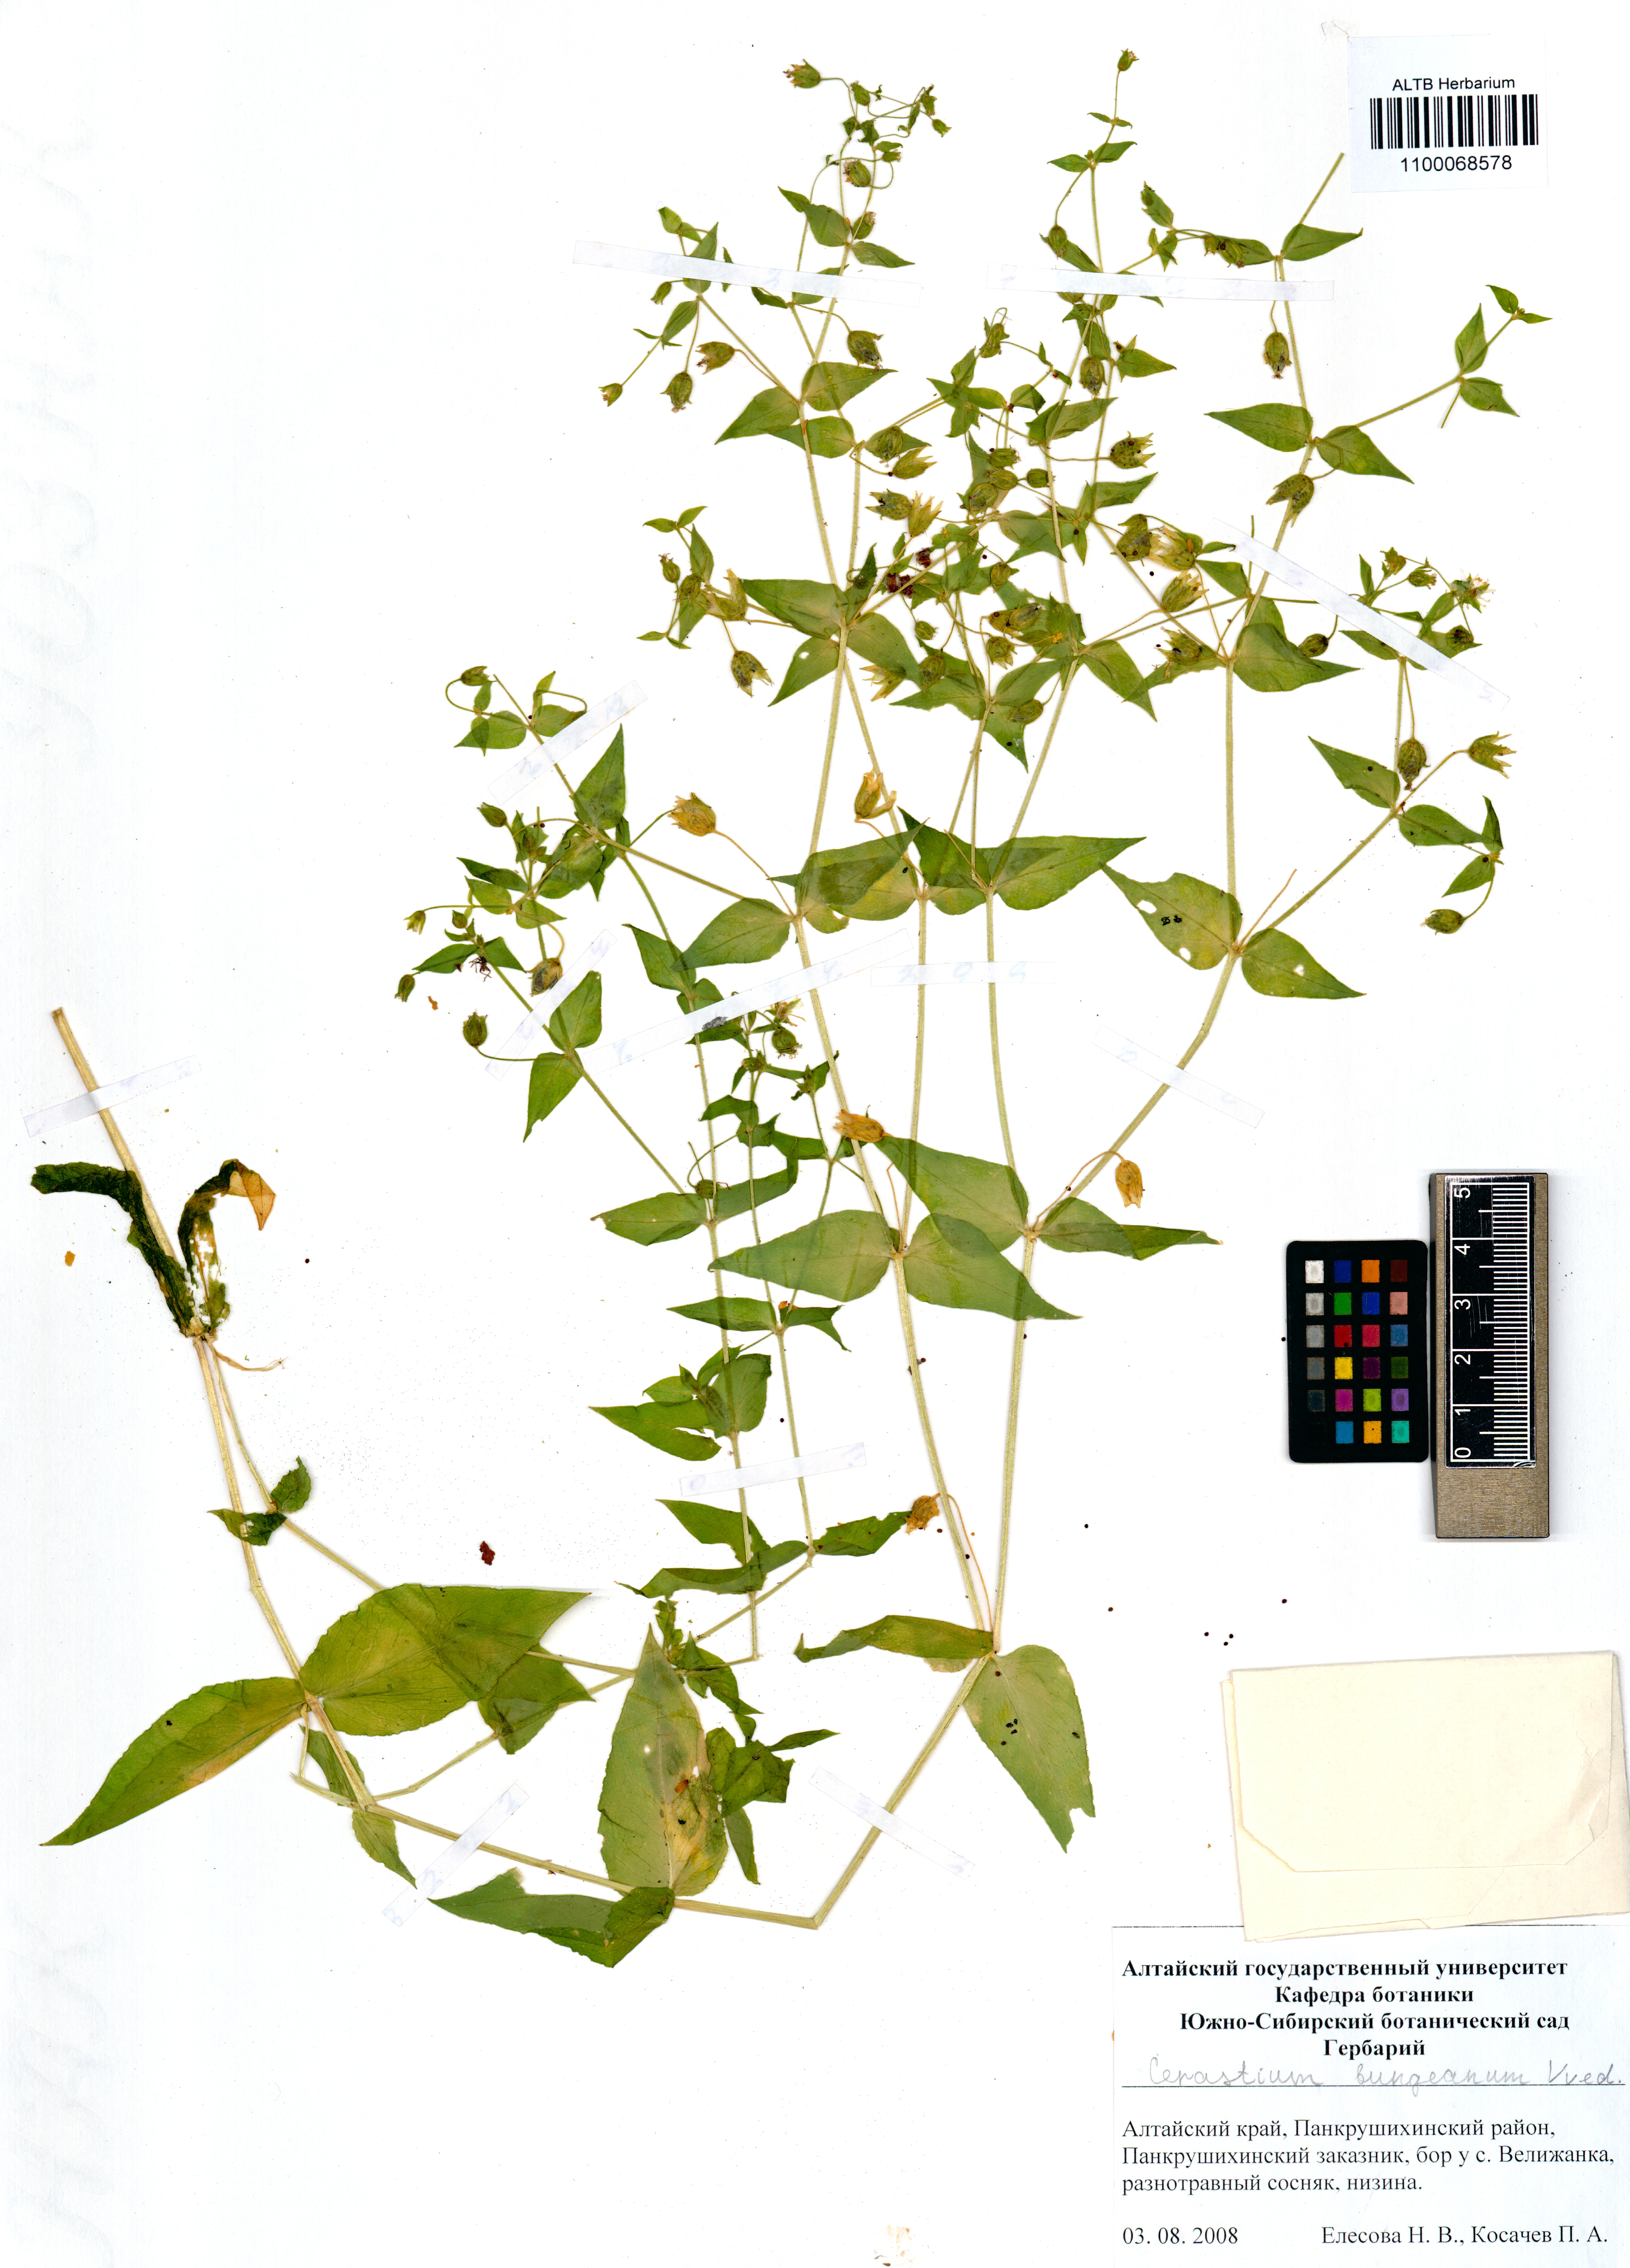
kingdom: Plantae
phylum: Tracheophyta
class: Magnoliopsida
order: Caryophyllales
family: Caryophyllaceae
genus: Dichodon
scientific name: Dichodon maximum
